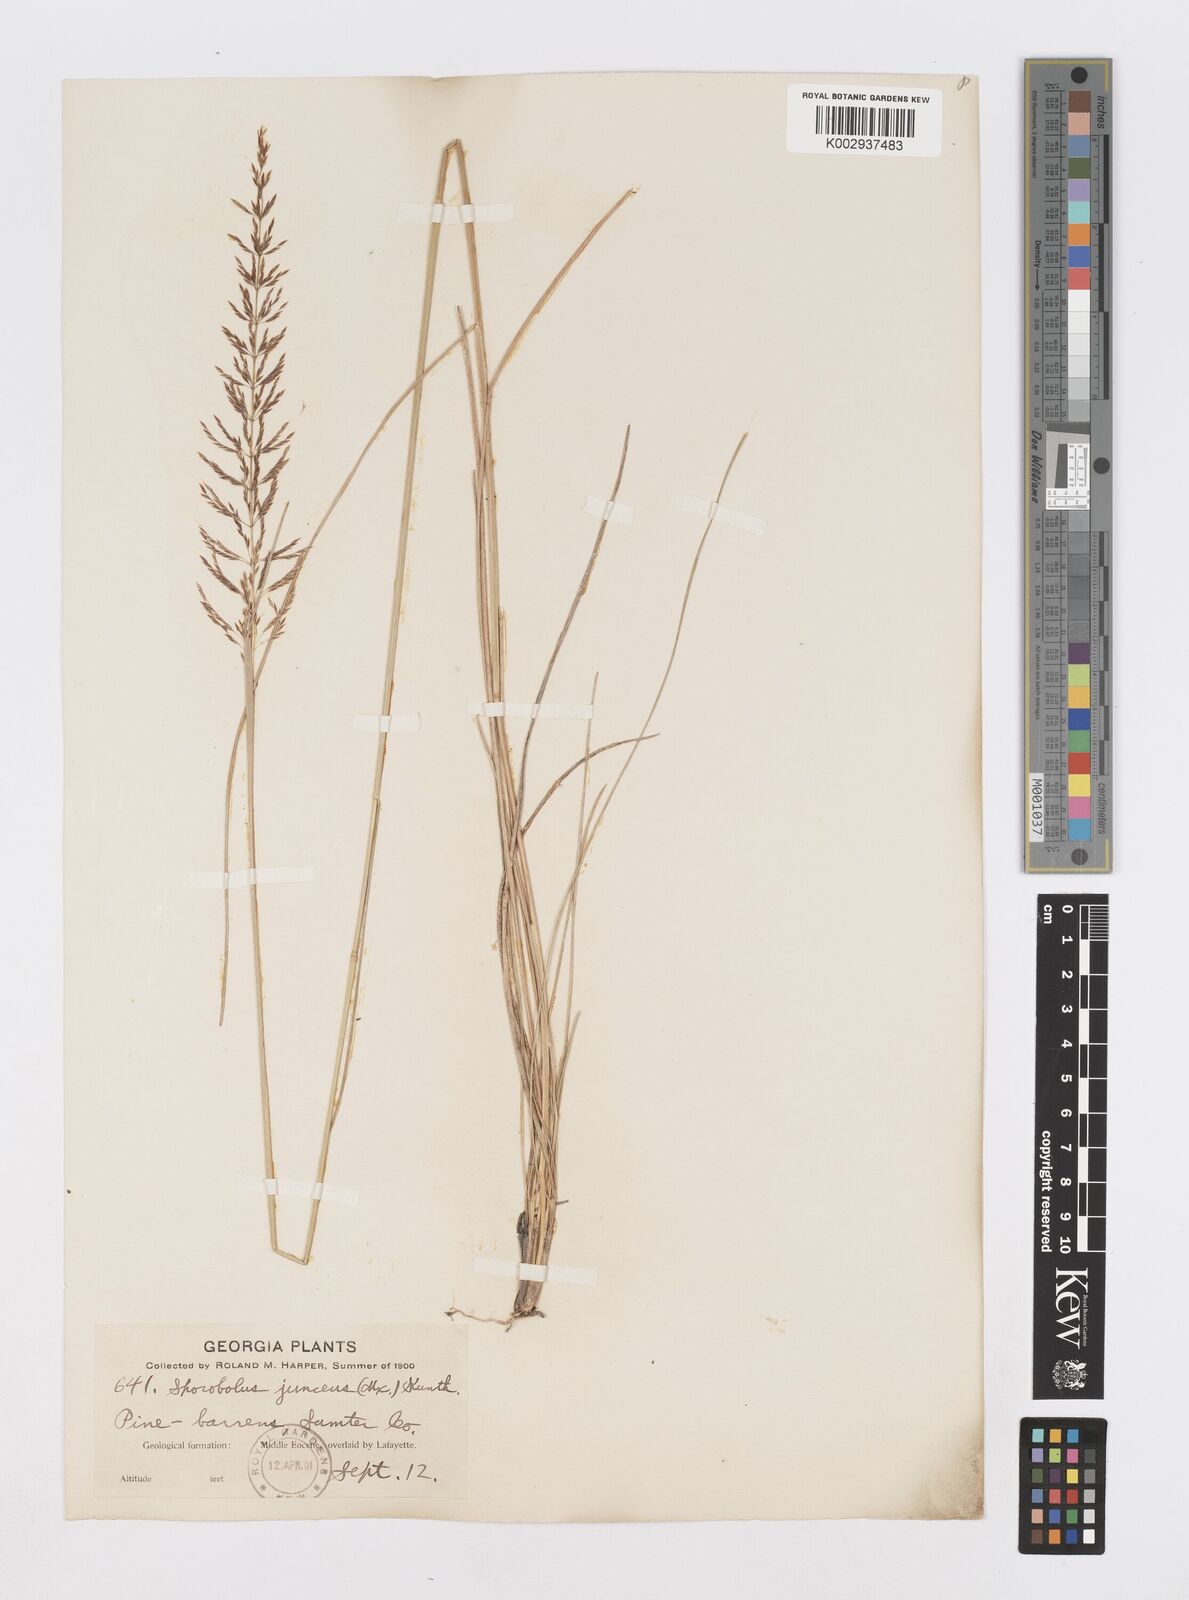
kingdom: Plantae
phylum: Tracheophyta
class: Liliopsida
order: Poales
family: Poaceae
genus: Sporobolus
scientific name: Sporobolus junceus
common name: Lizard grass
